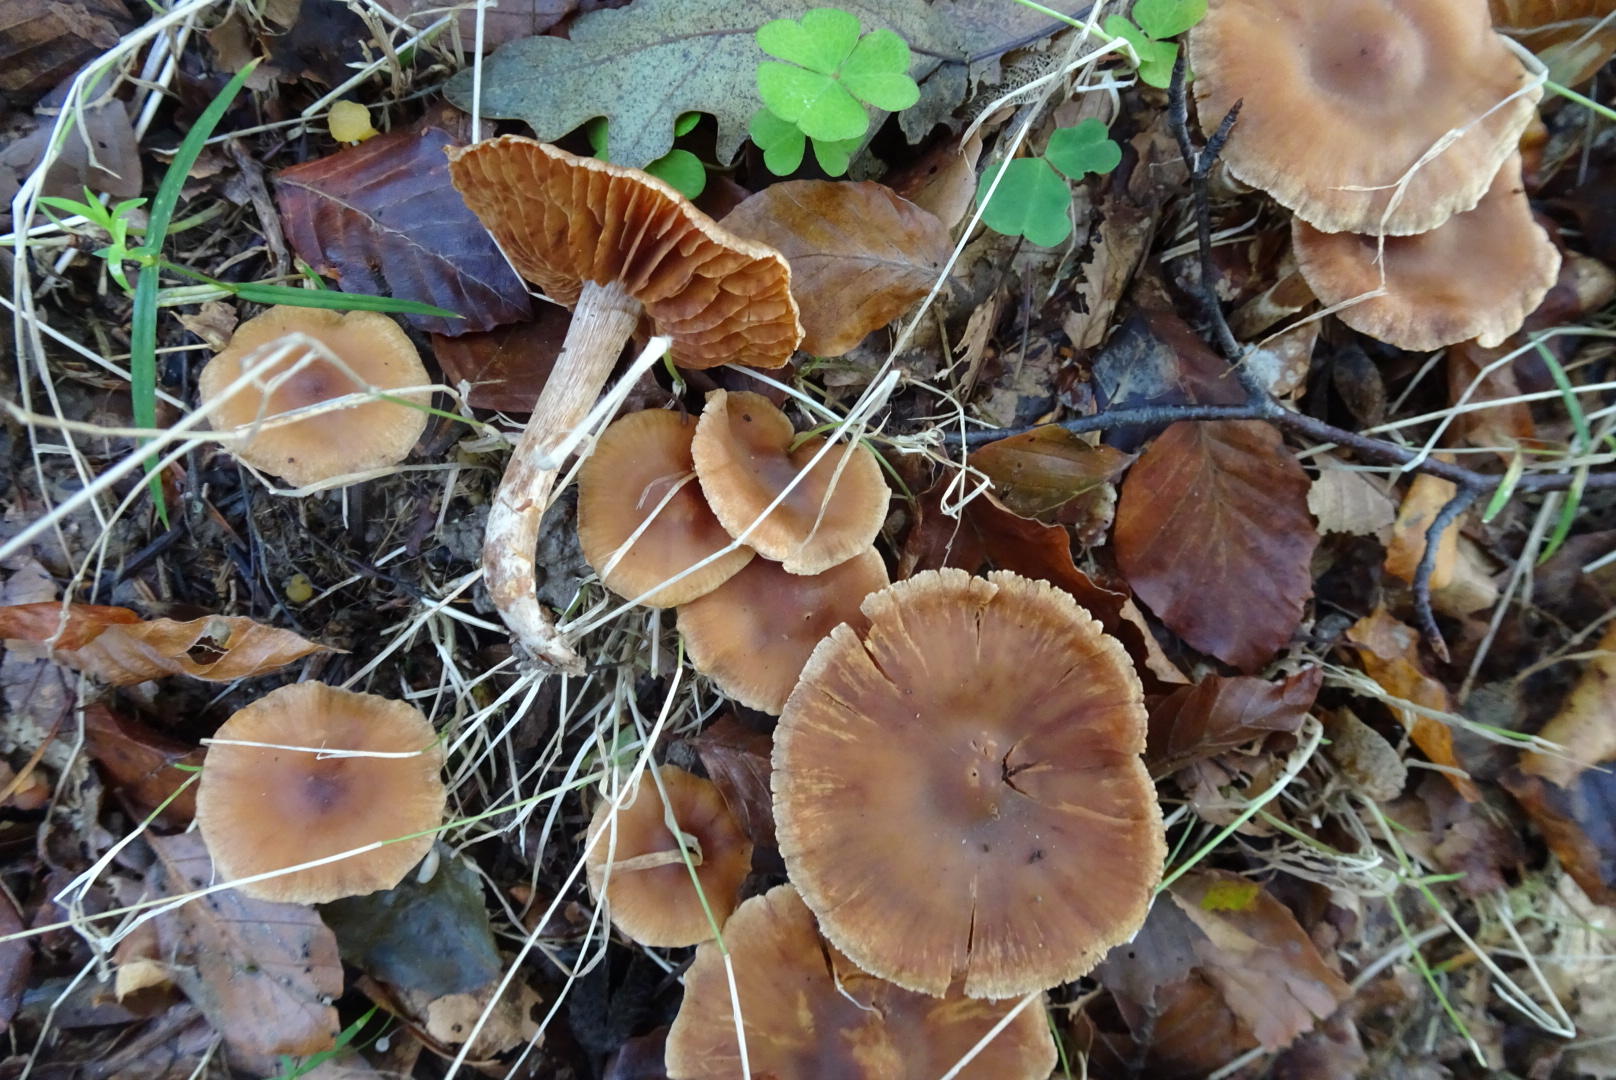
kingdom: Fungi
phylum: Basidiomycota
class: Agaricomycetes
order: Agaricales
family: Cortinariaceae
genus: Cortinarius
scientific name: Cortinarius
